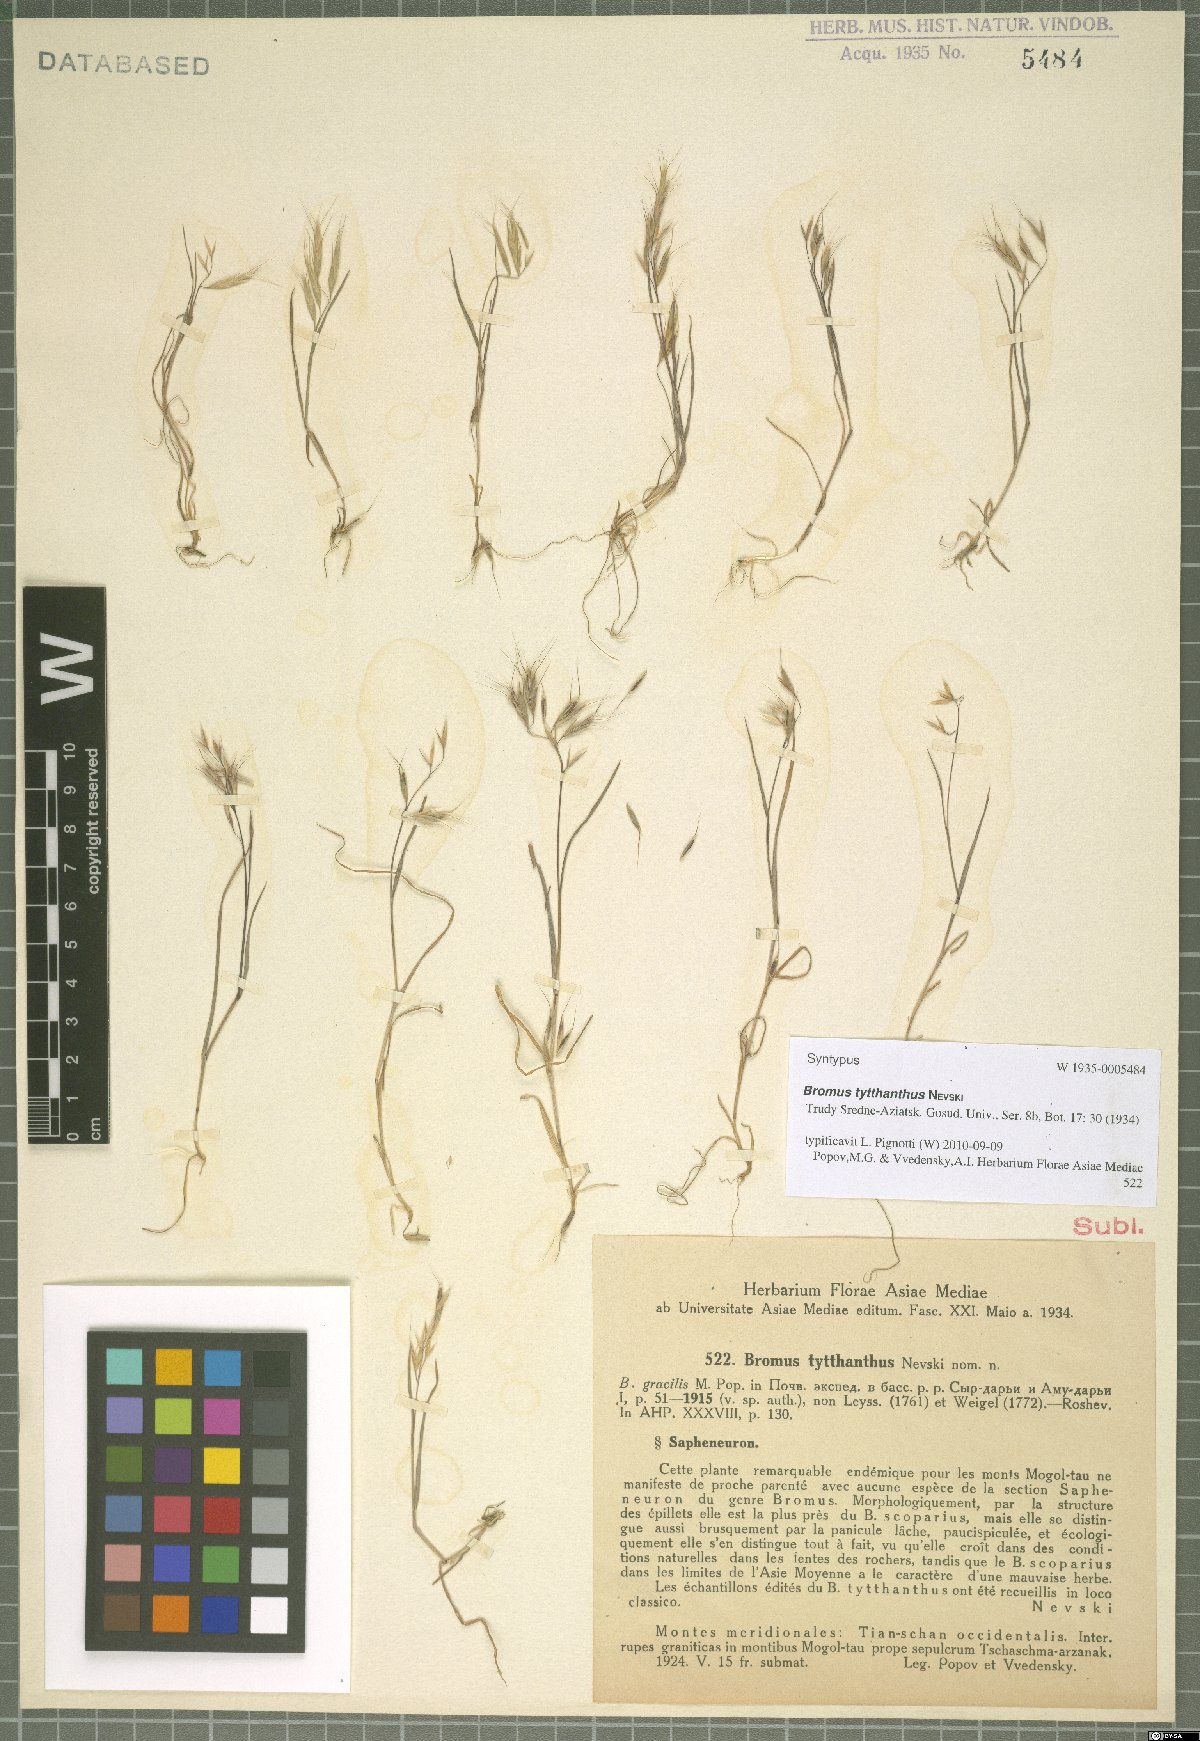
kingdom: Plantae
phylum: Tracheophyta
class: Liliopsida
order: Poales
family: Poaceae
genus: Bromus
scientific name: Bromus pulchellus
